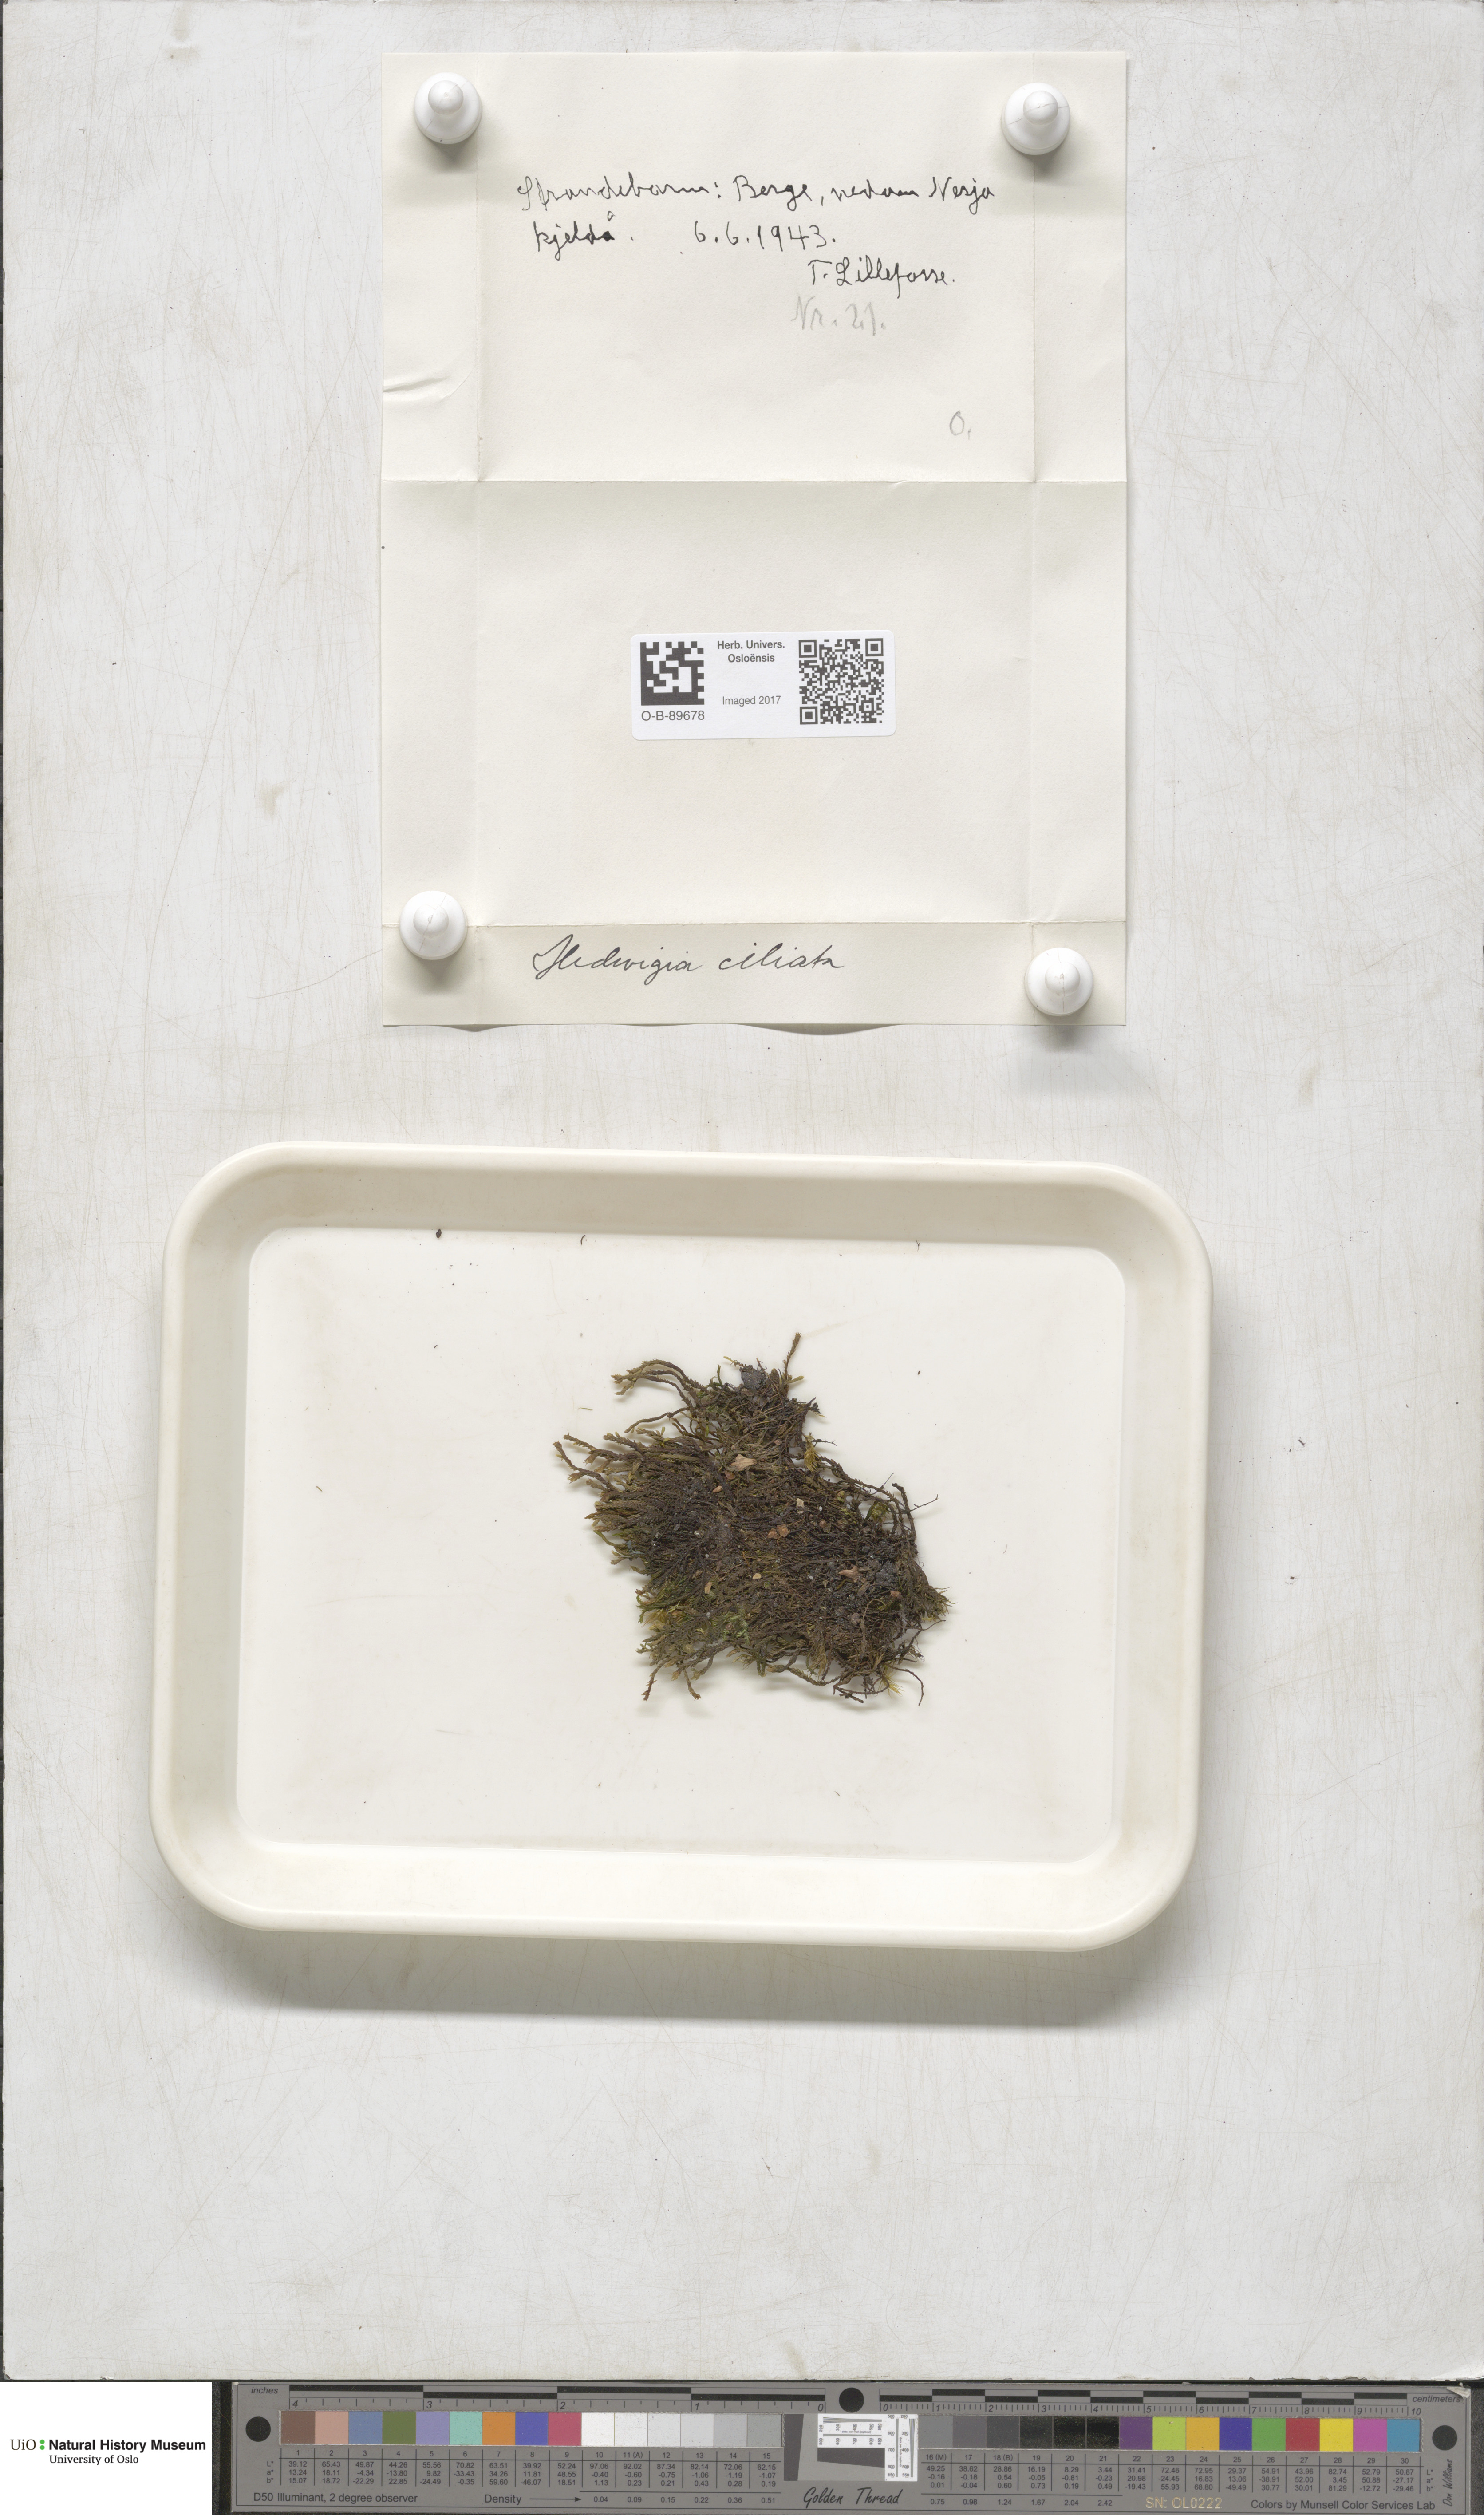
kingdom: Plantae
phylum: Bryophyta
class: Bryopsida
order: Hedwigiales
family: Hedwigiaceae
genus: Hedwigia
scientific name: Hedwigia ciliata
